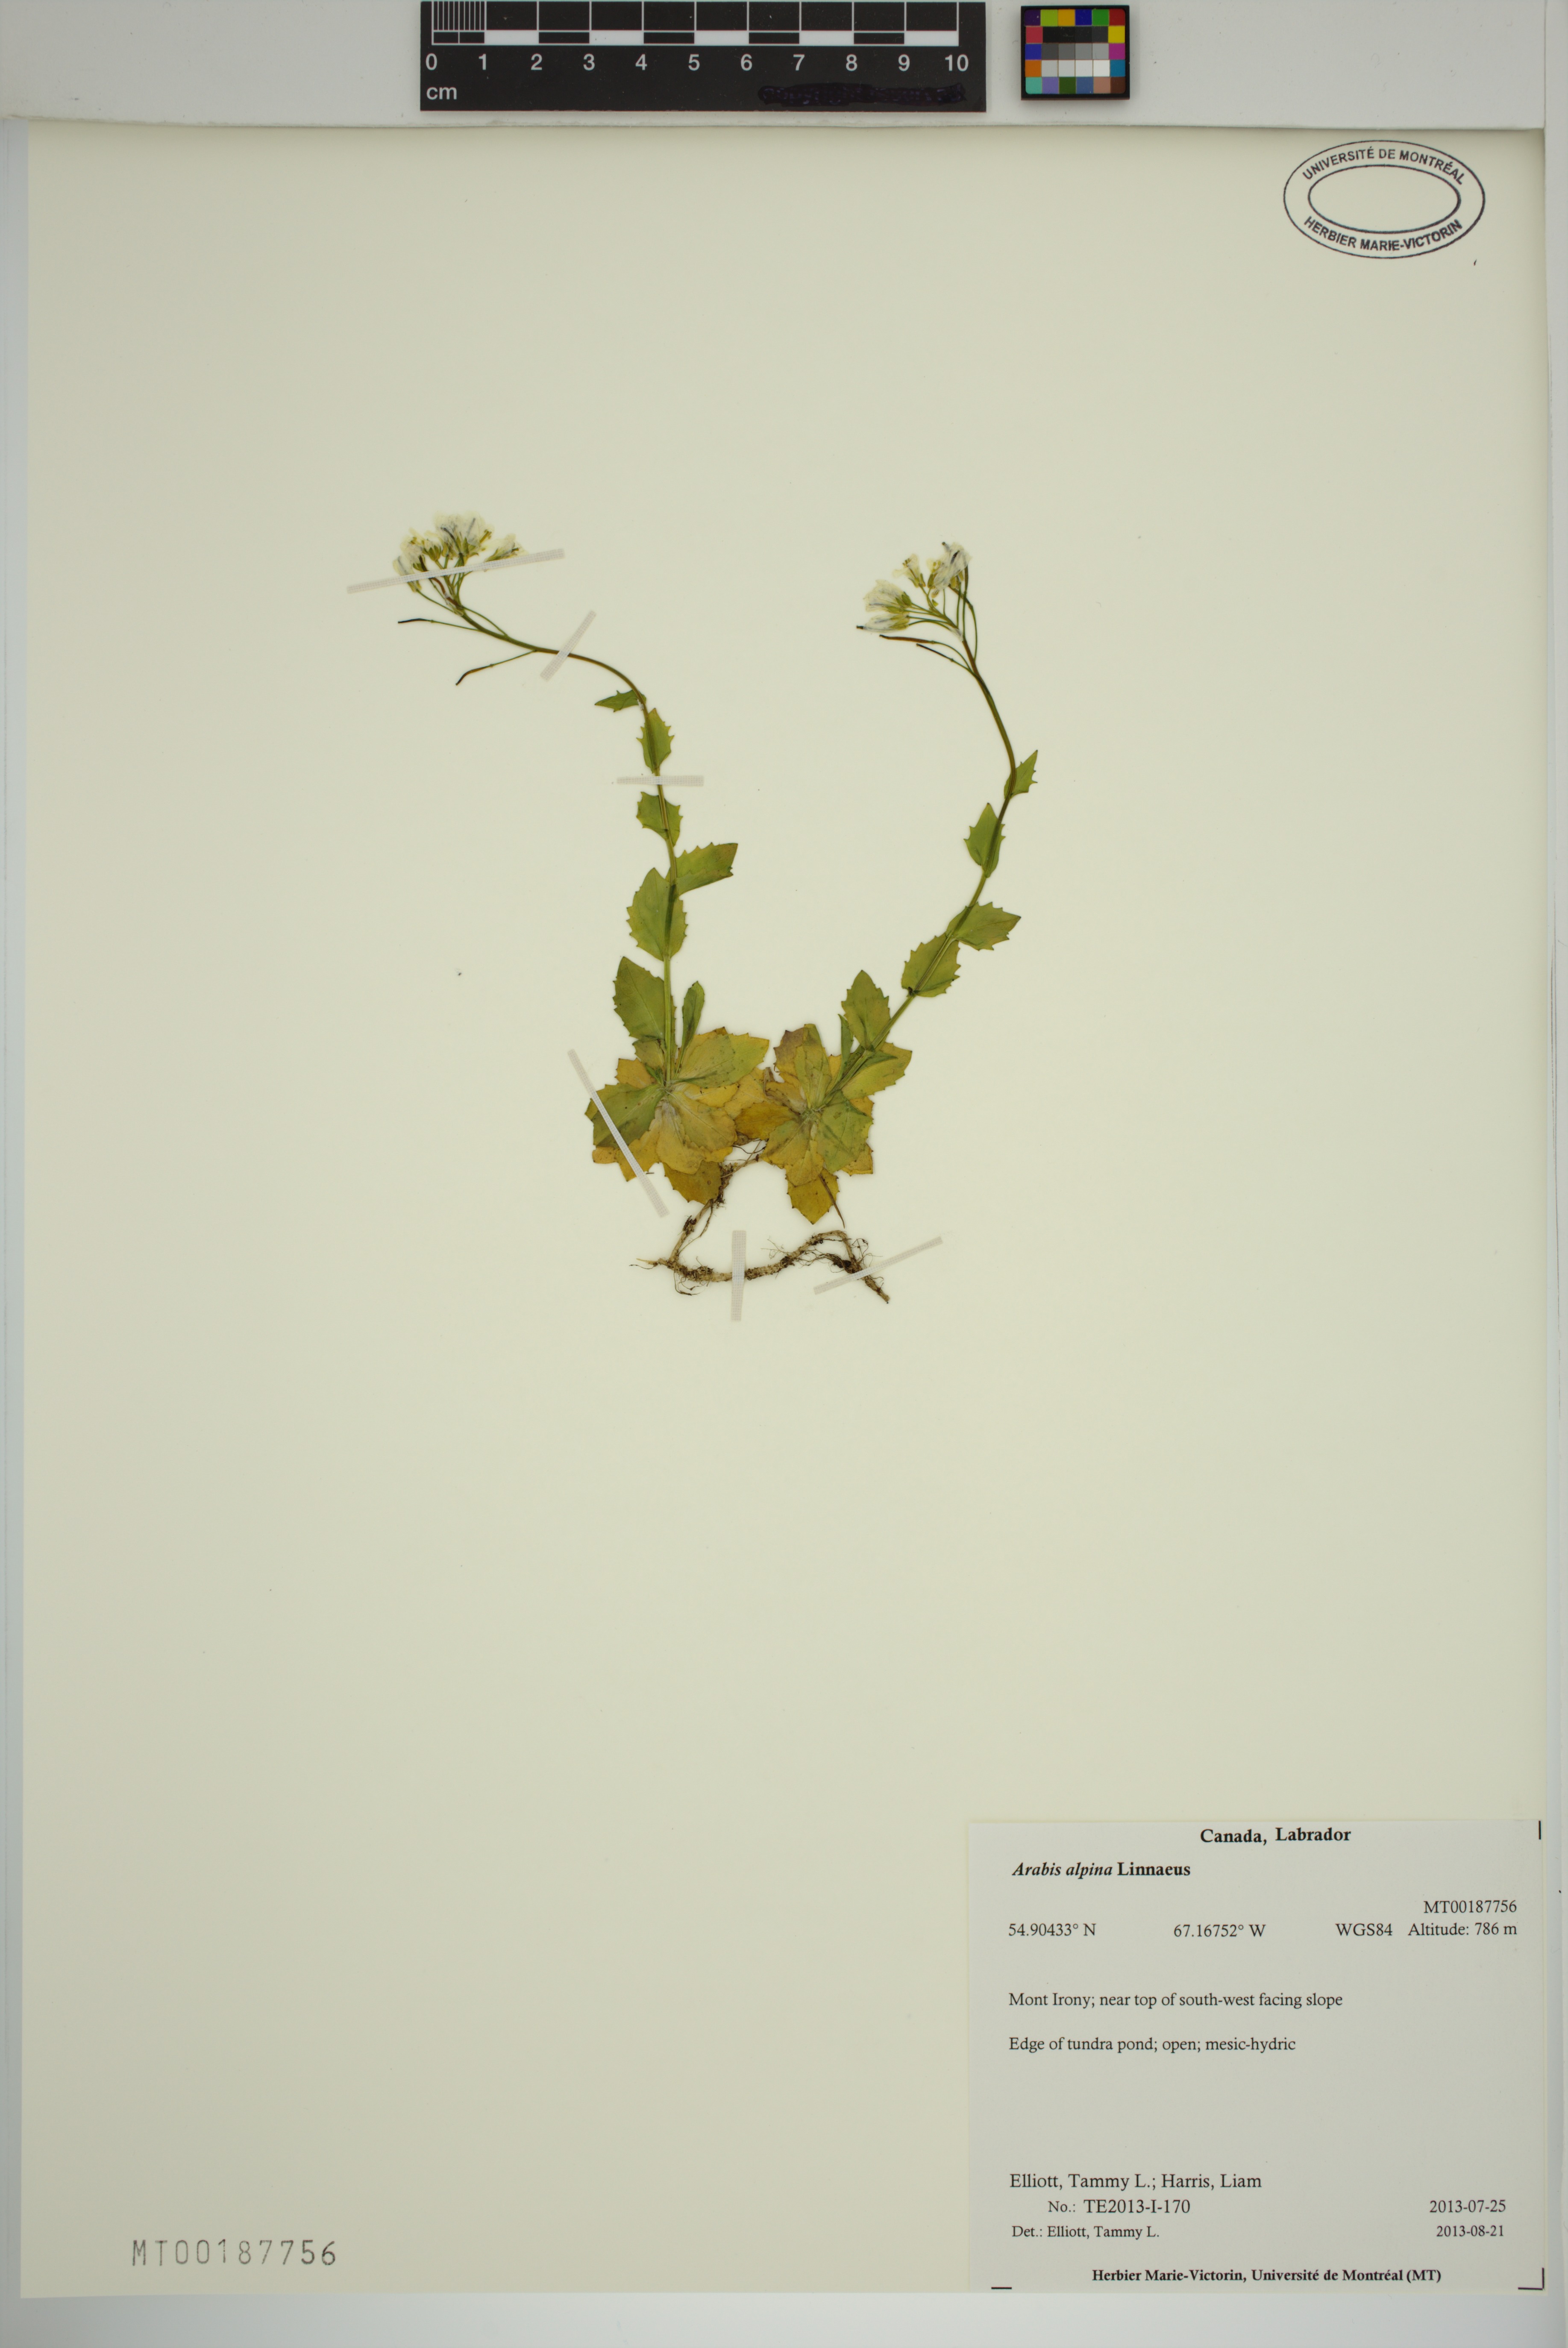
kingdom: Plantae
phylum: Tracheophyta
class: Magnoliopsida
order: Brassicales
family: Brassicaceae
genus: Arabis
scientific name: Arabis alpina
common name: Alpine rock-cress
